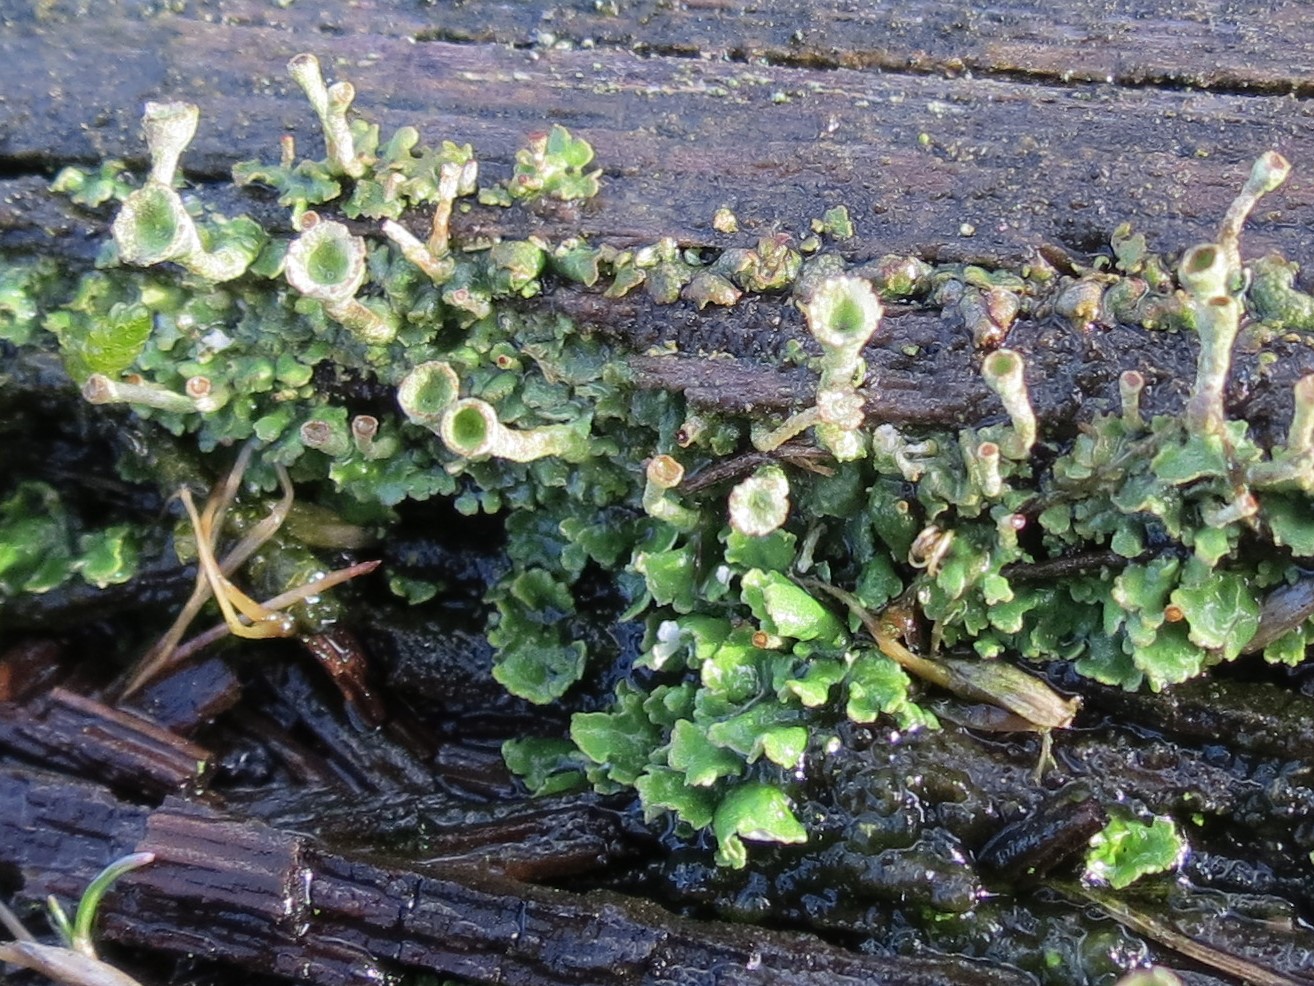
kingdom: Fungi
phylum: Ascomycota
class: Lecanoromycetes
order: Lecanorales
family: Cladoniaceae
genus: Cladonia
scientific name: Cladonia
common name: brungrøn bægerlav
